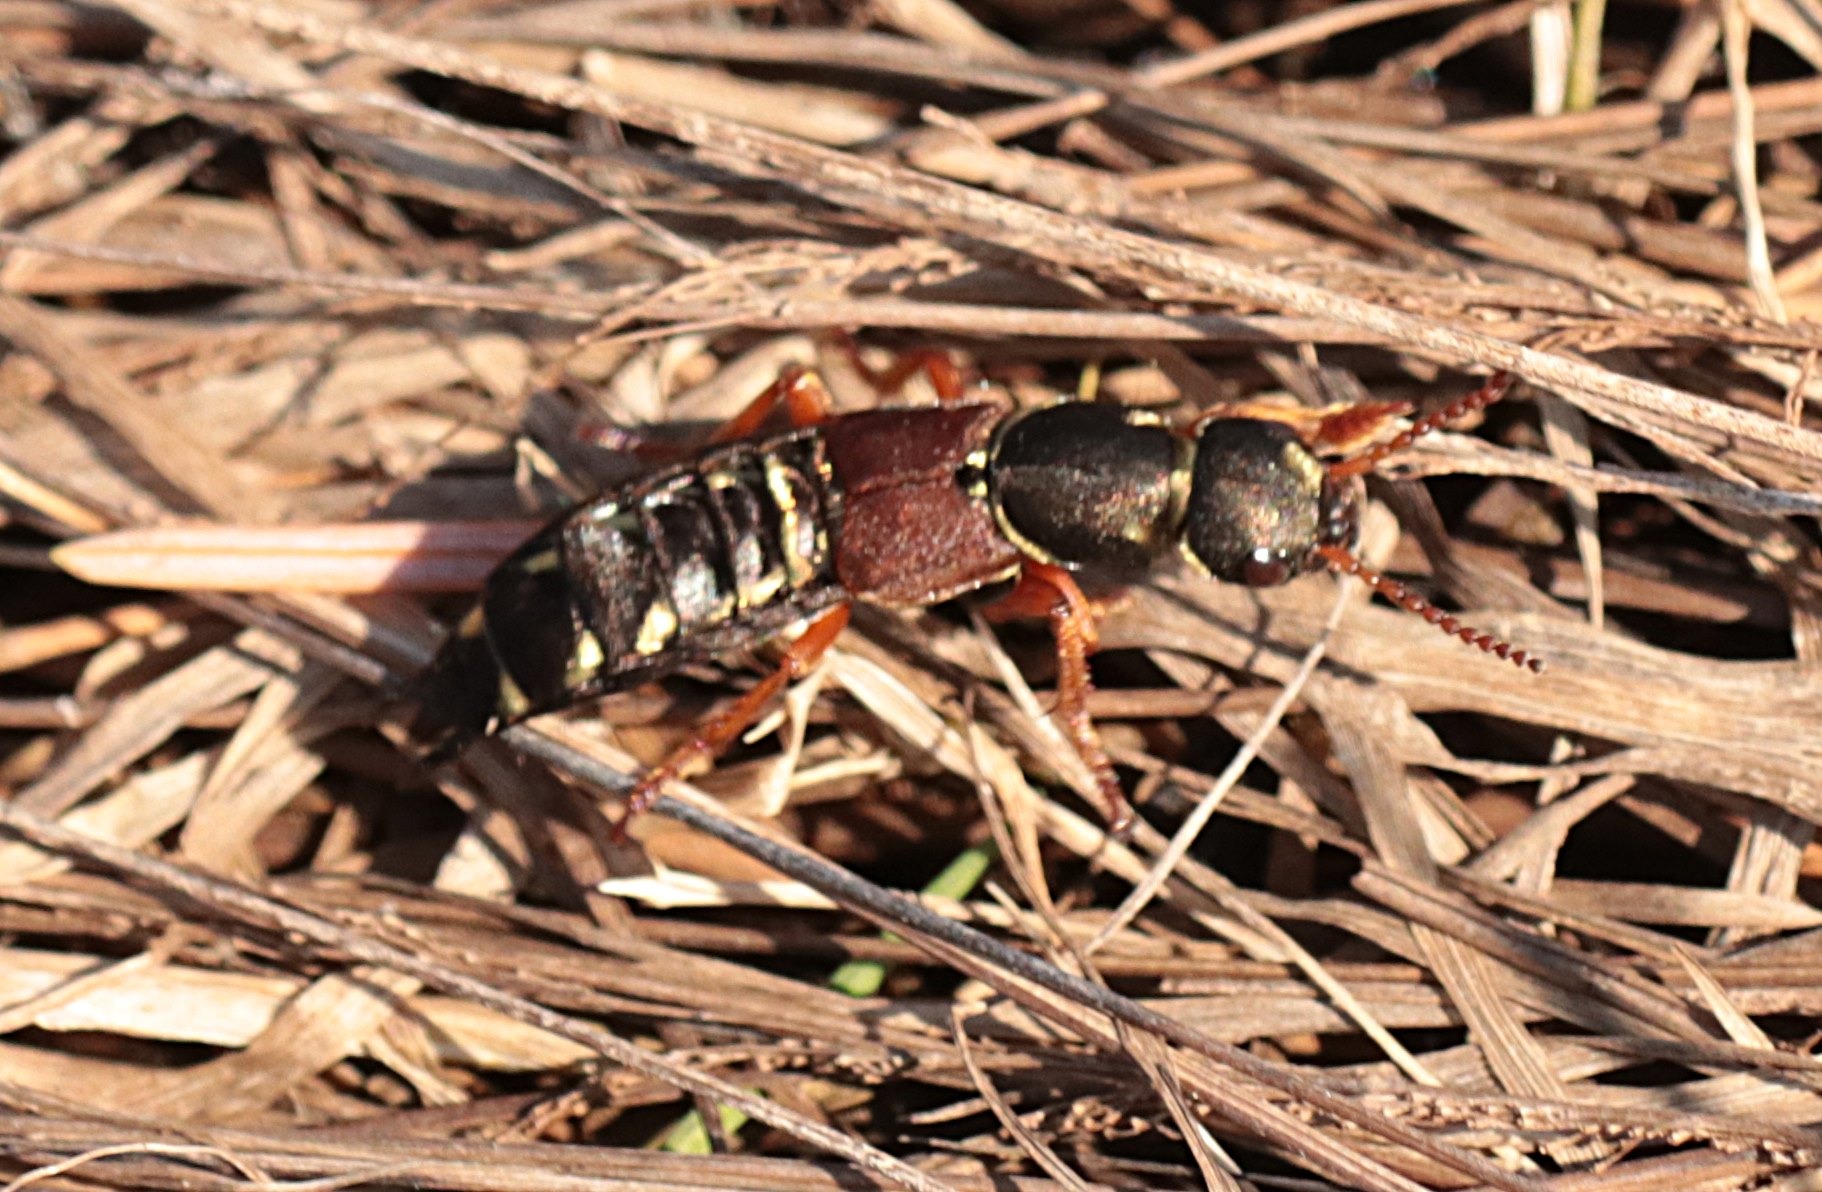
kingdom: Animalia
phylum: Arthropoda
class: Insecta
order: Coleoptera
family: Staphylinidae
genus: Staphylinus
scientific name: Staphylinus caesareus
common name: Kejserrovbille
